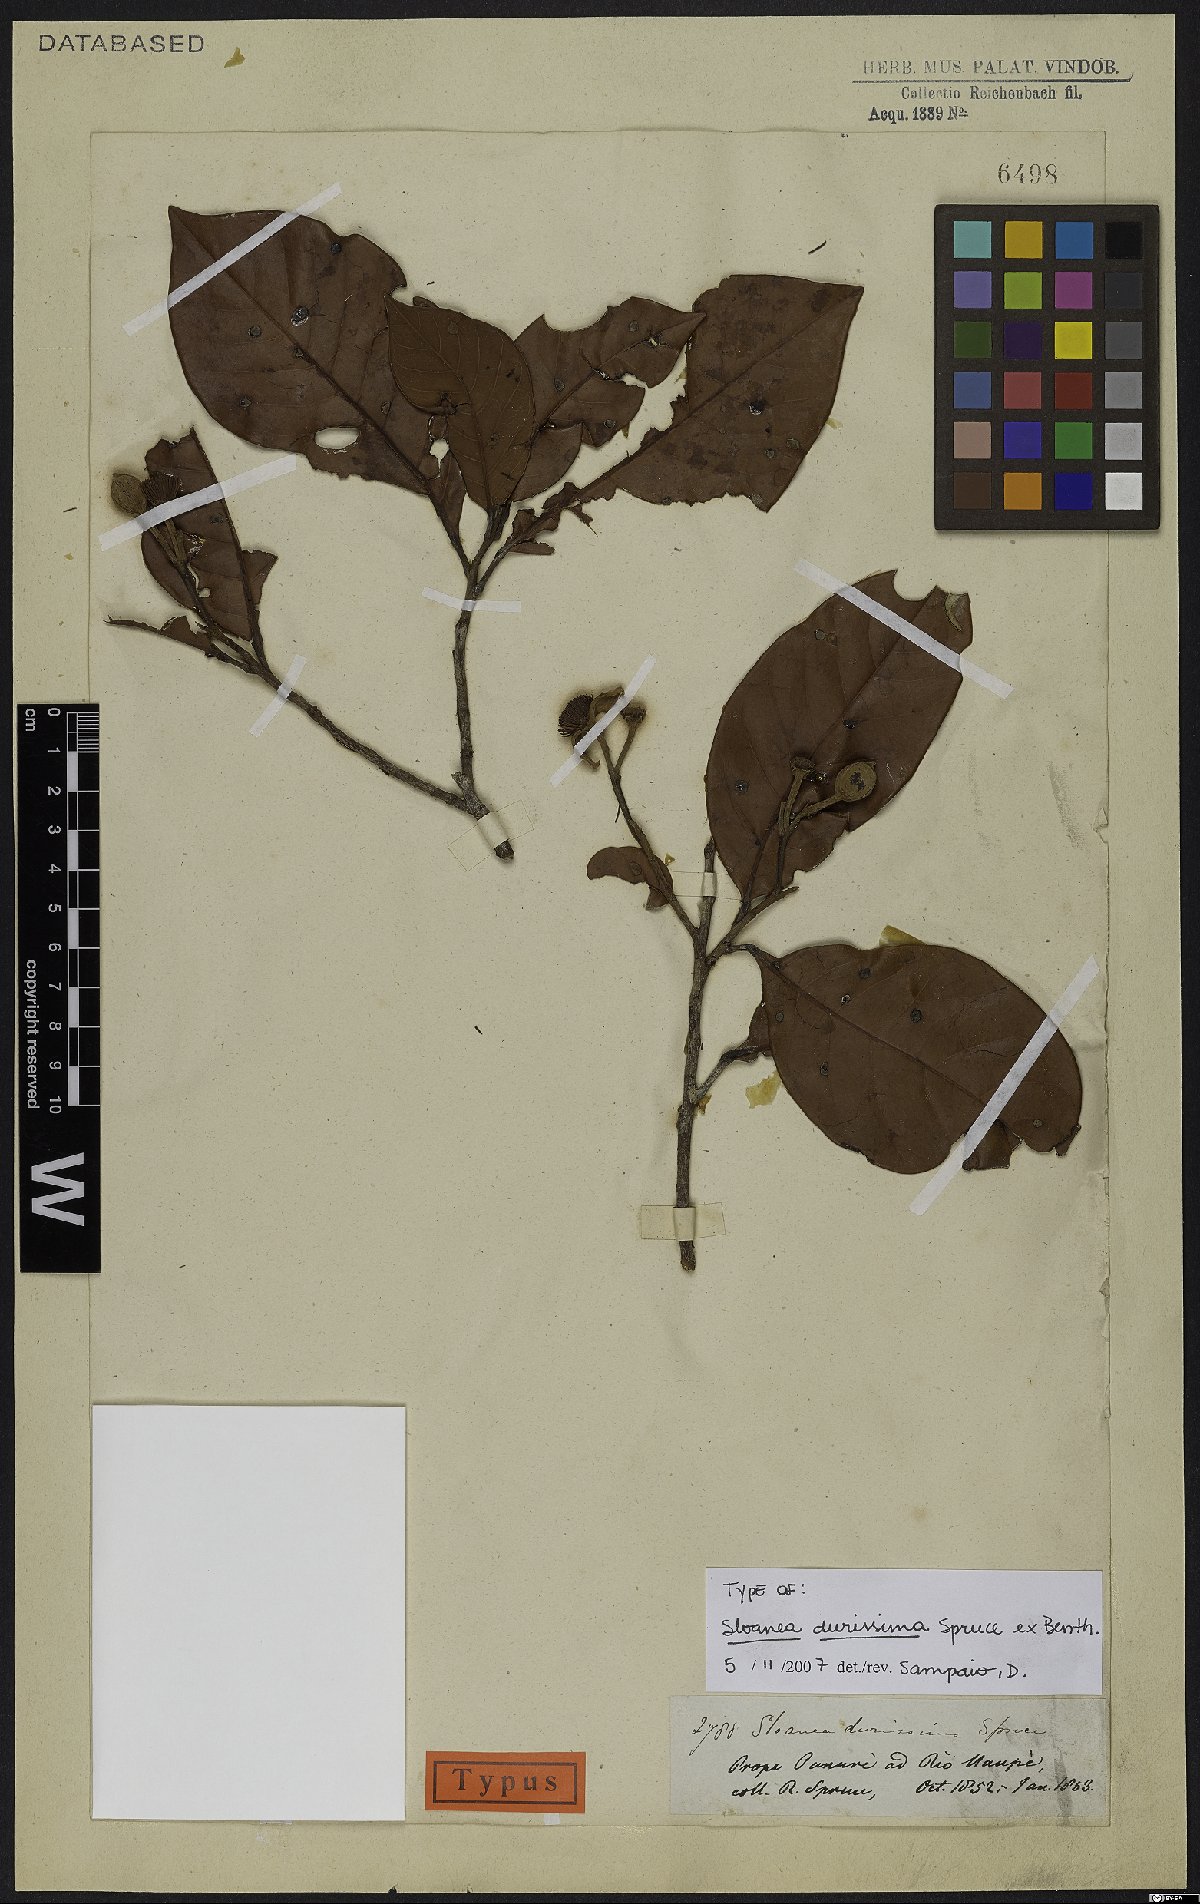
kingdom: Plantae
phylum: Tracheophyta
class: Magnoliopsida
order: Oxalidales
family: Elaeocarpaceae
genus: Sloanea
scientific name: Sloanea durissima
